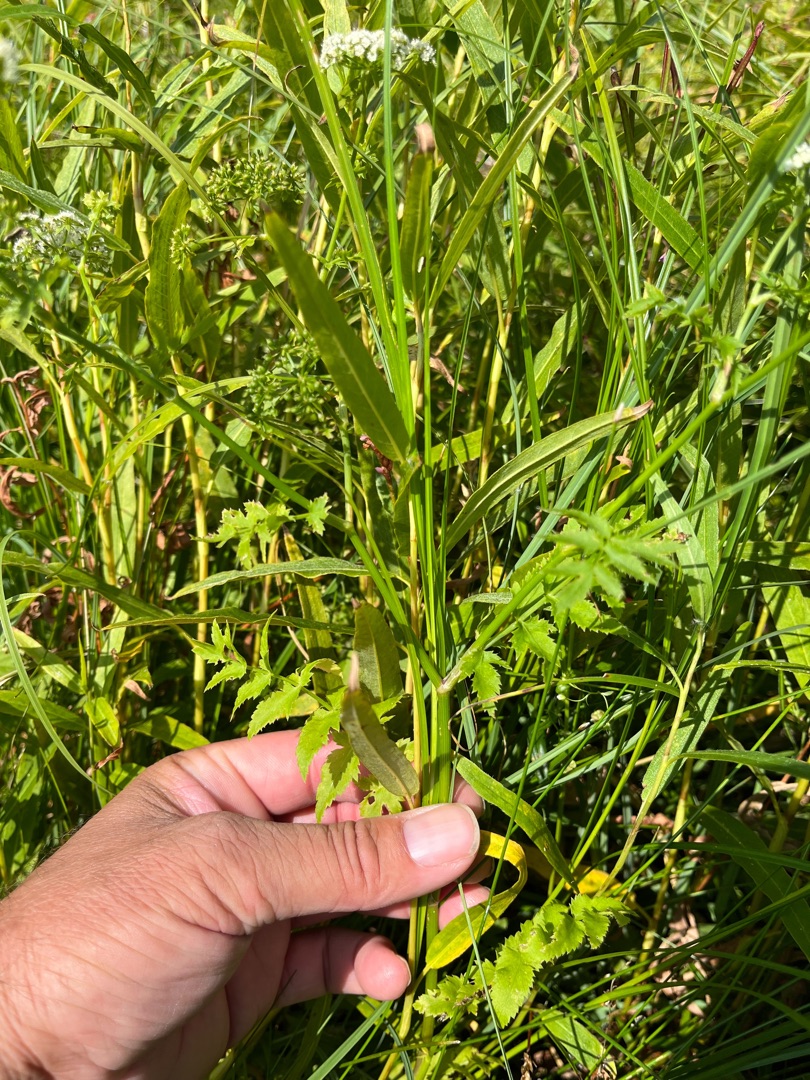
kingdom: Plantae
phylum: Tracheophyta
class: Magnoliopsida
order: Apiales
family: Apiaceae
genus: Berula
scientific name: Berula erecta
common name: Sideskærm
